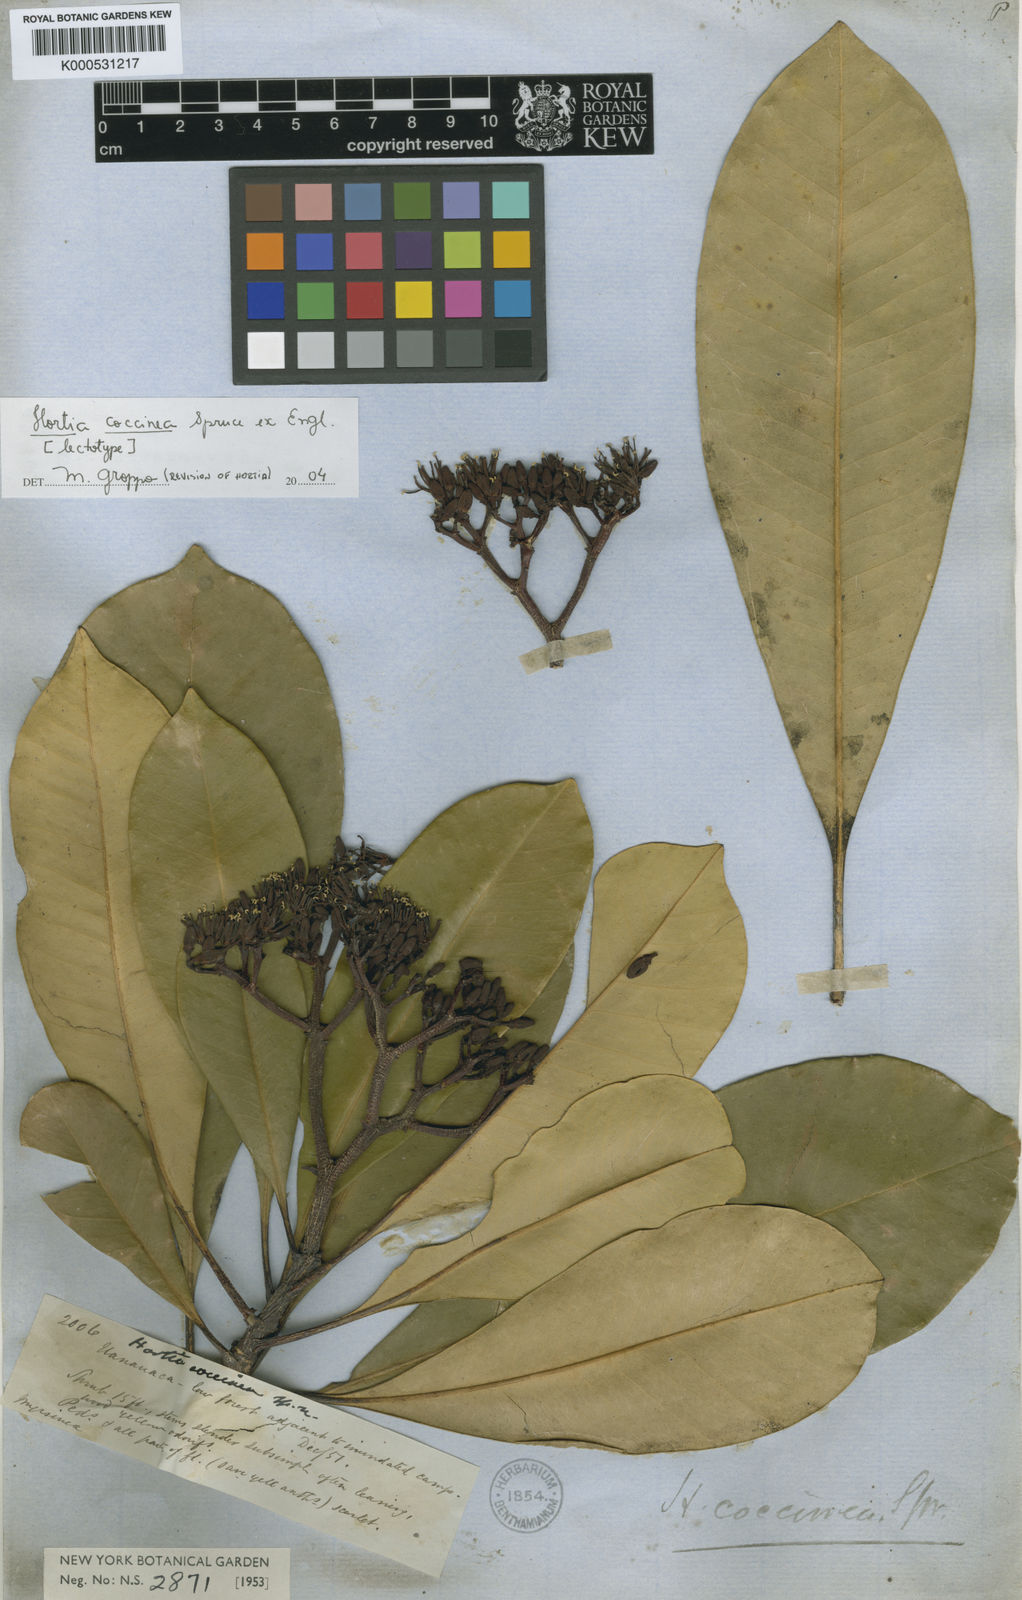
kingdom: Plantae
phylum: Tracheophyta
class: Magnoliopsida
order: Sapindales
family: Rutaceae
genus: Hortia
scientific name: Hortia coccinea
